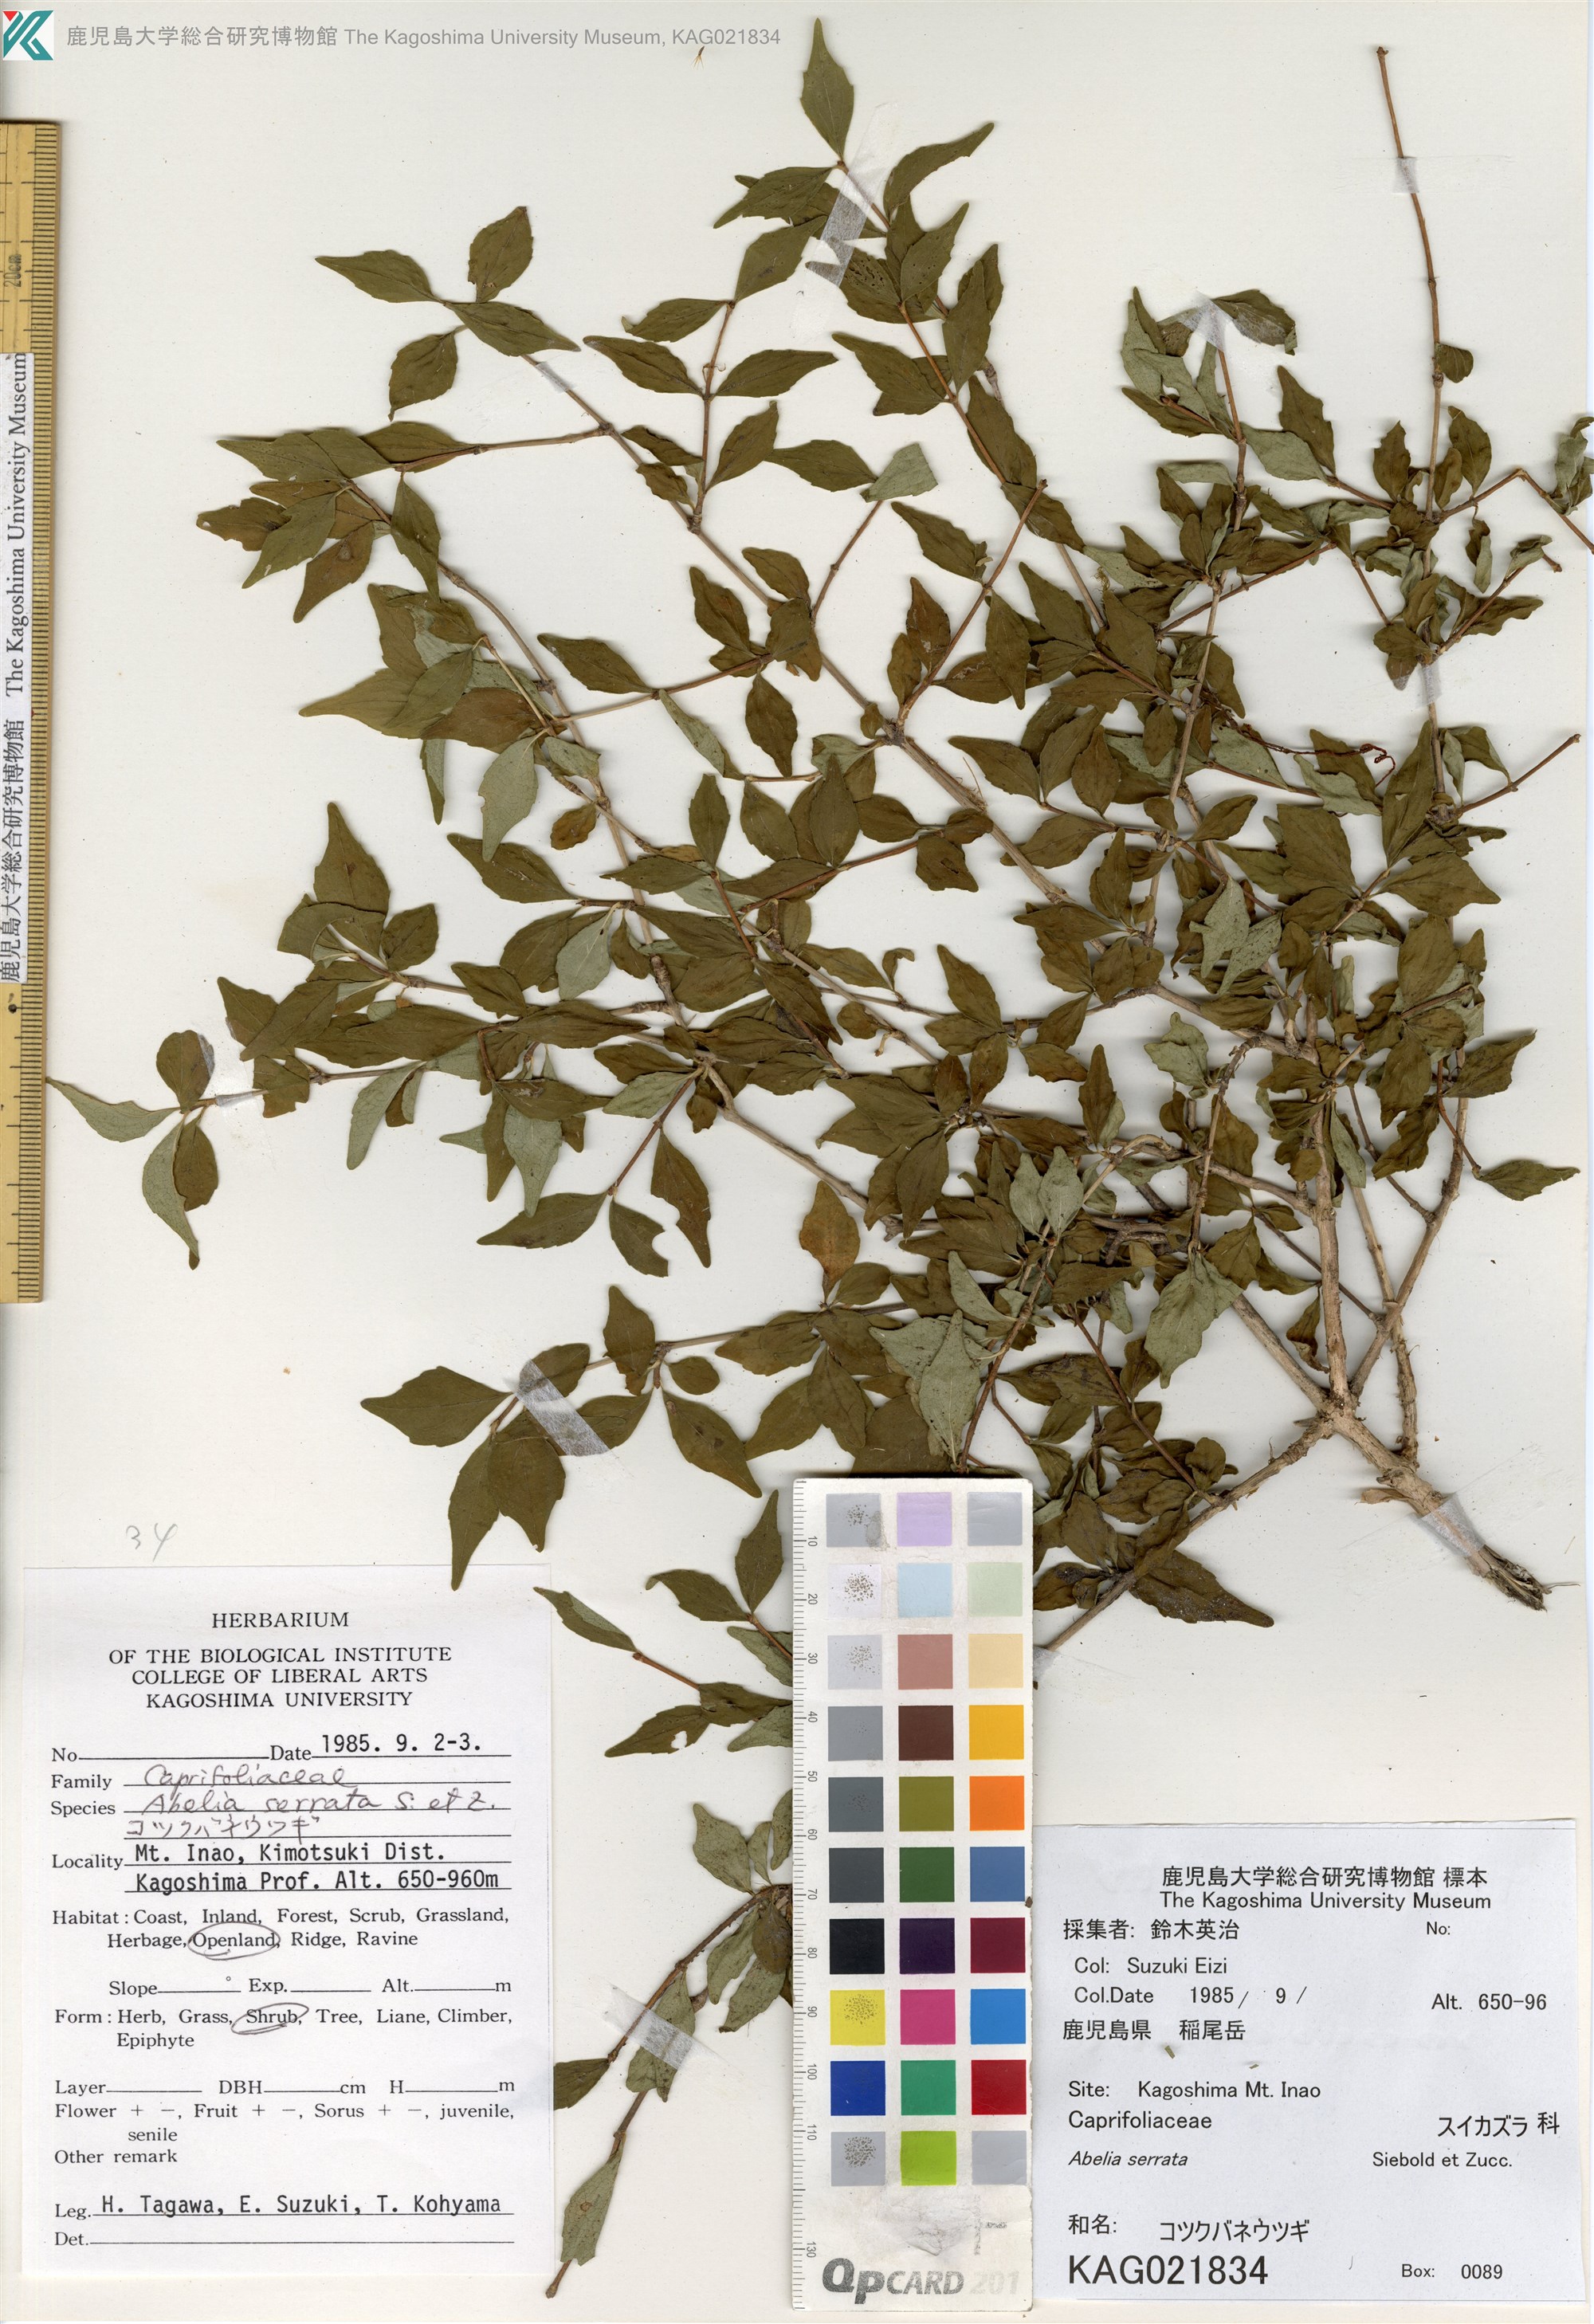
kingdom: Plantae
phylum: Tracheophyta
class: Magnoliopsida
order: Dipsacales
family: Caprifoliaceae
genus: Diabelia
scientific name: Diabelia serrata
